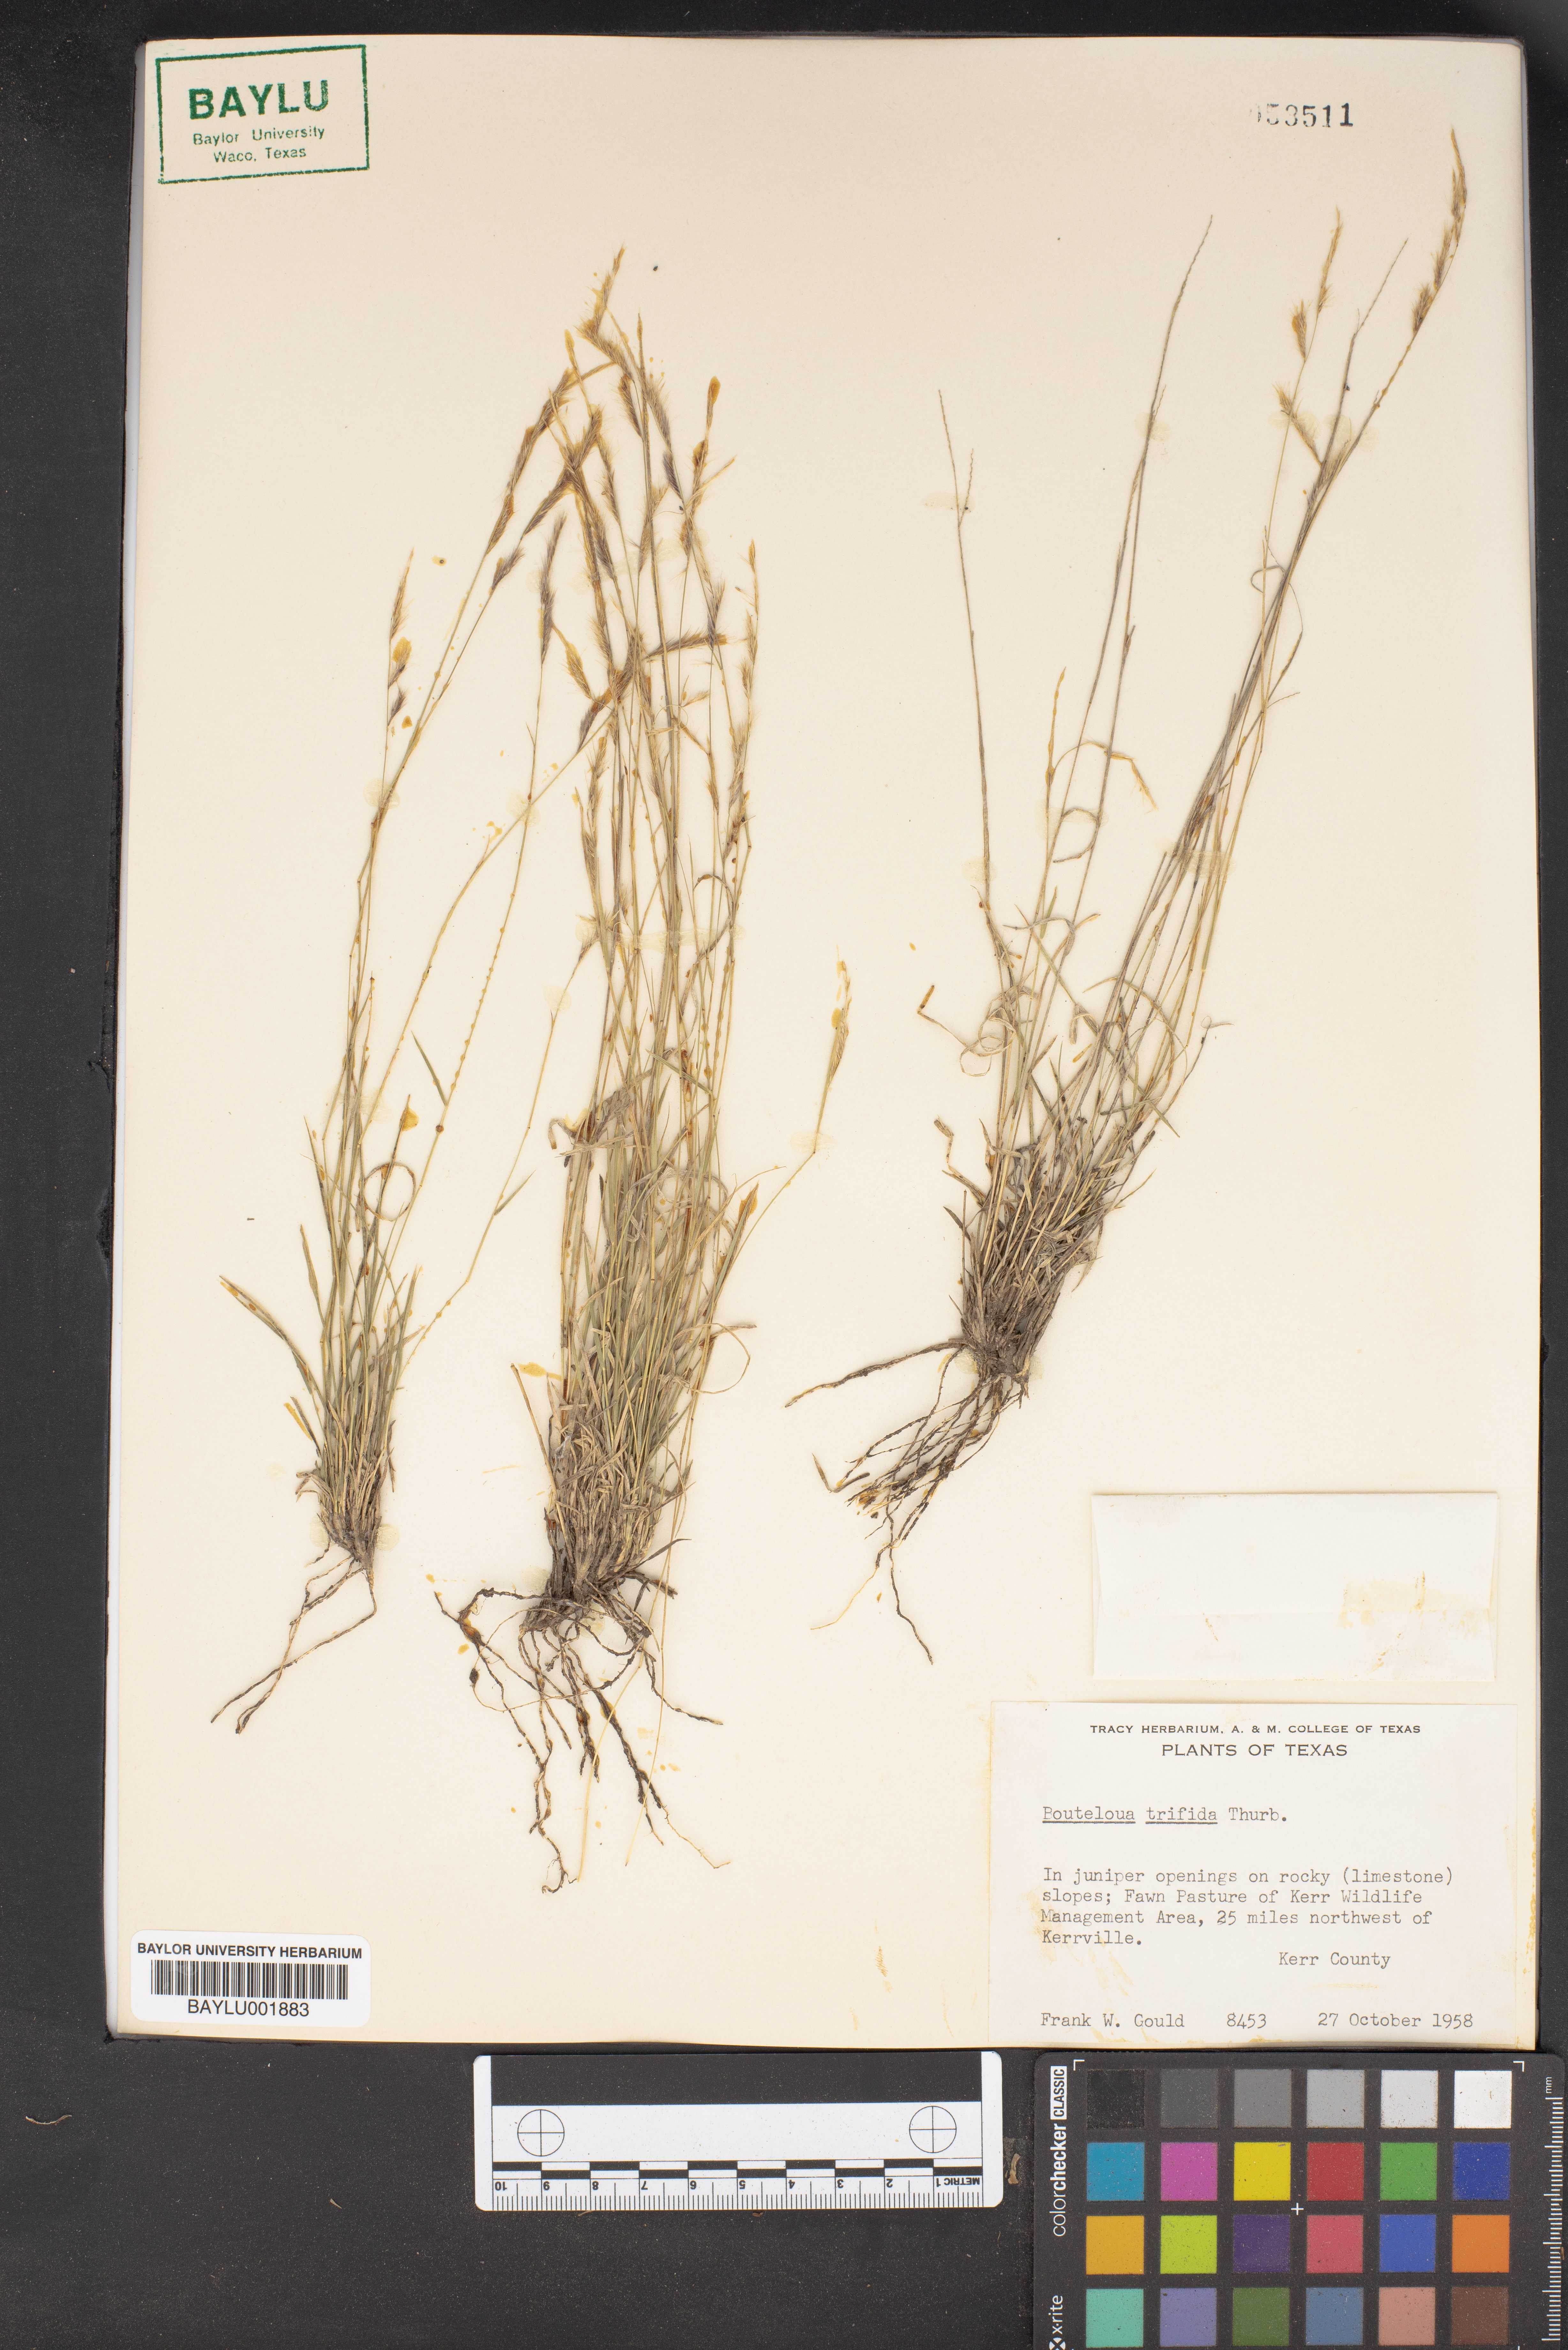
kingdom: Plantae
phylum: Tracheophyta
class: Liliopsida
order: Poales
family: Poaceae
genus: Bouteloua
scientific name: Bouteloua trifida
